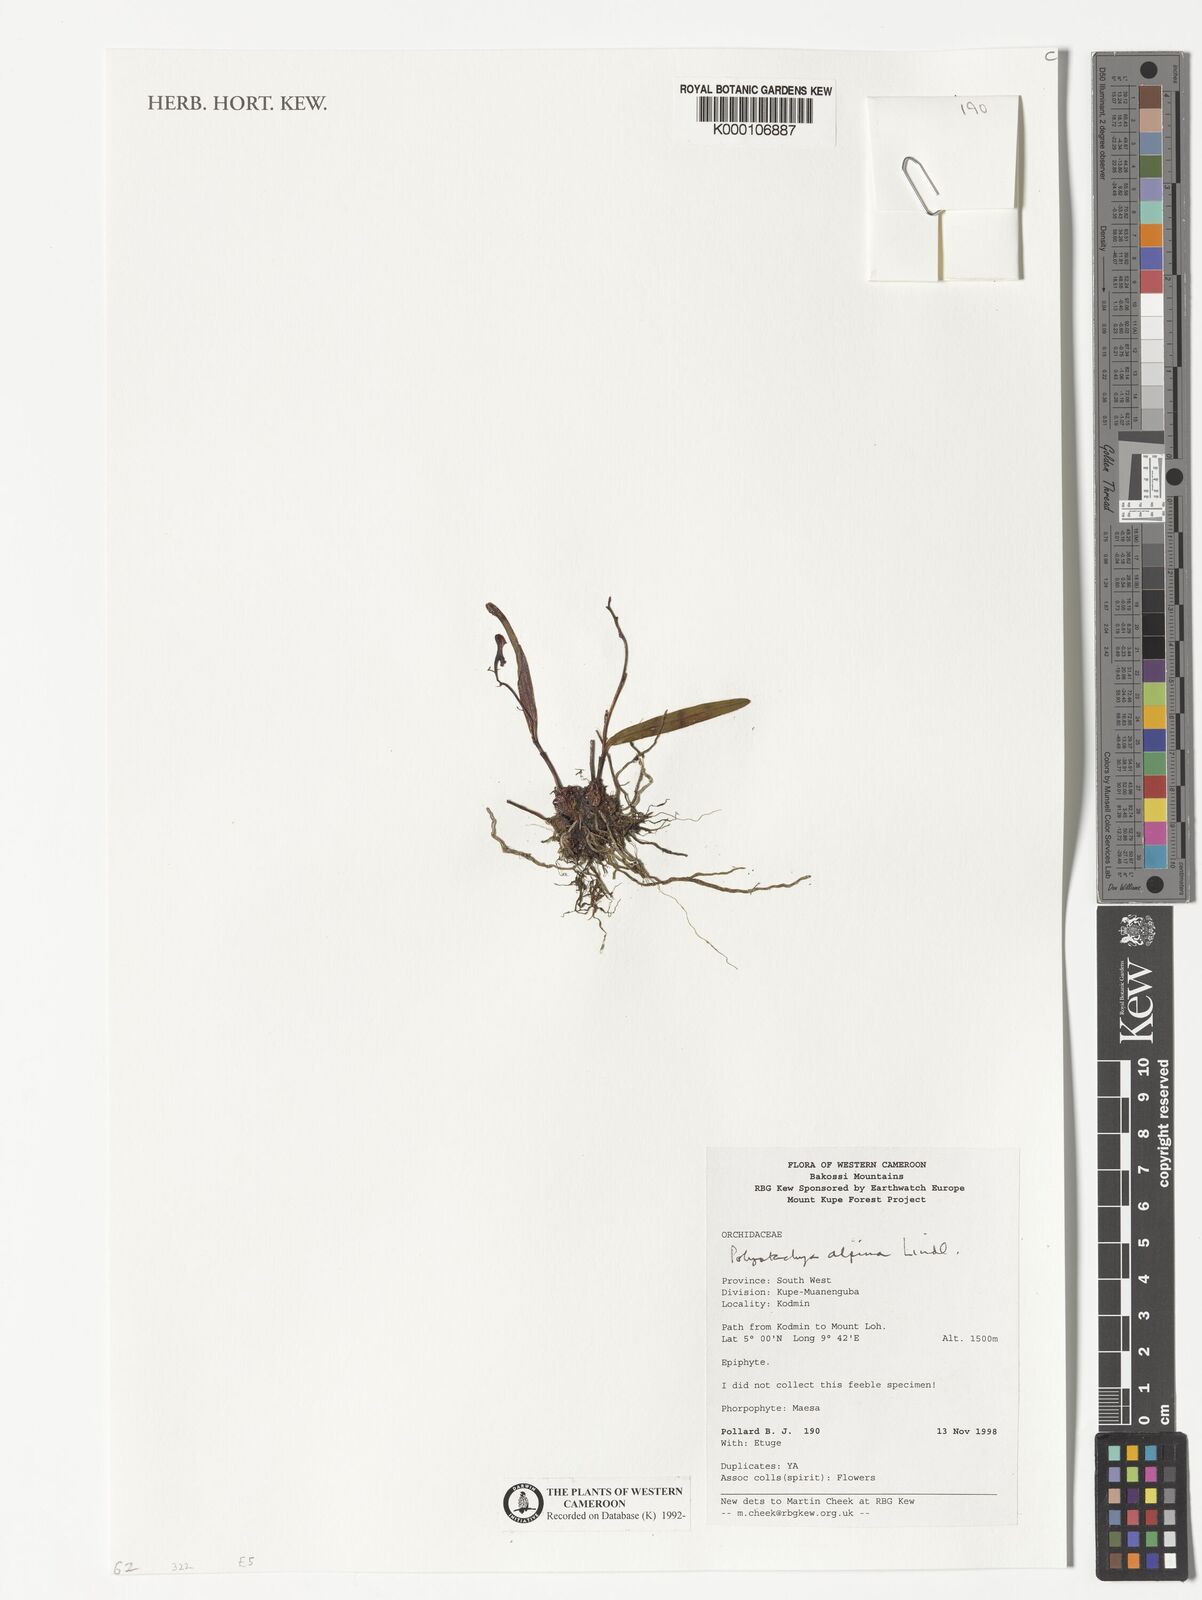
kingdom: Plantae
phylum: Tracheophyta
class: Liliopsida
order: Asparagales
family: Orchidaceae
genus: Polystachya
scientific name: Polystachya alpina
